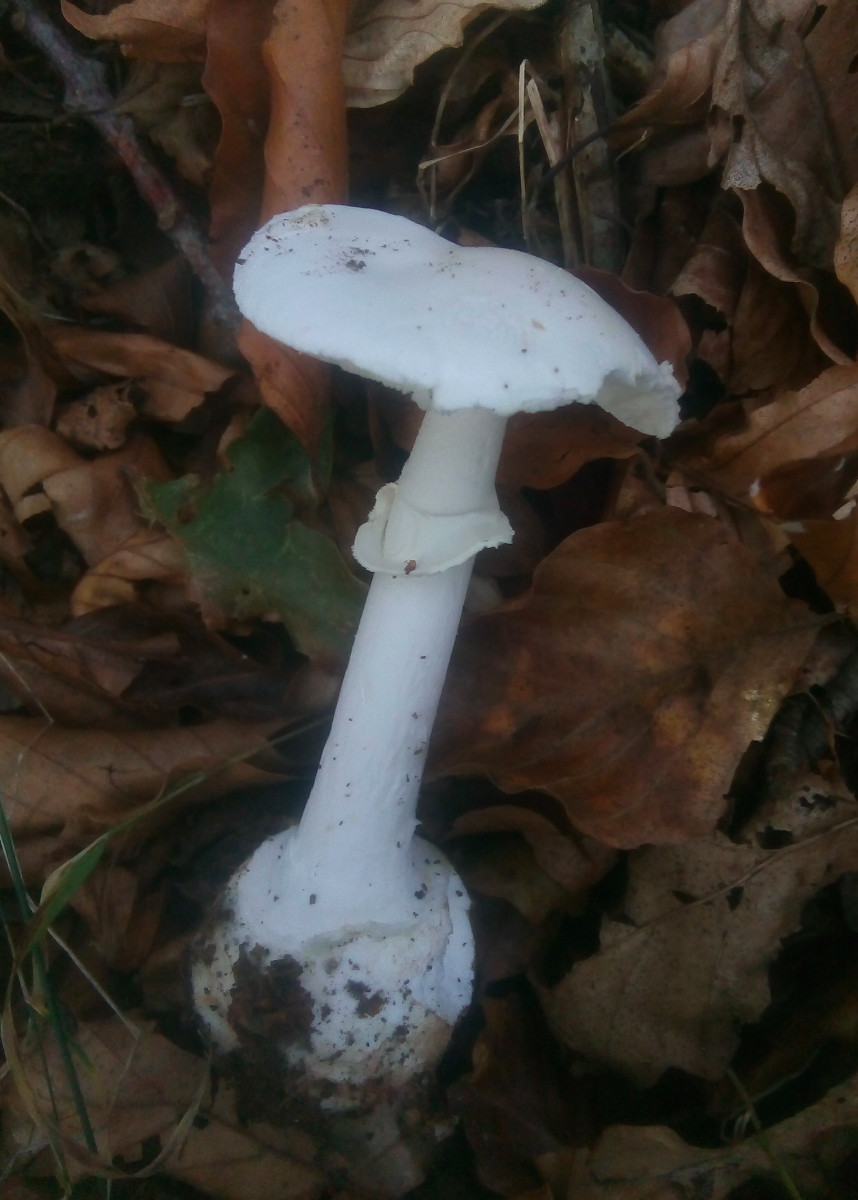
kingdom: Fungi
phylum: Basidiomycota
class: Agaricomycetes
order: Agaricales
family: Amanitaceae
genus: Amanita
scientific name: Amanita citrina
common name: False death-cap
